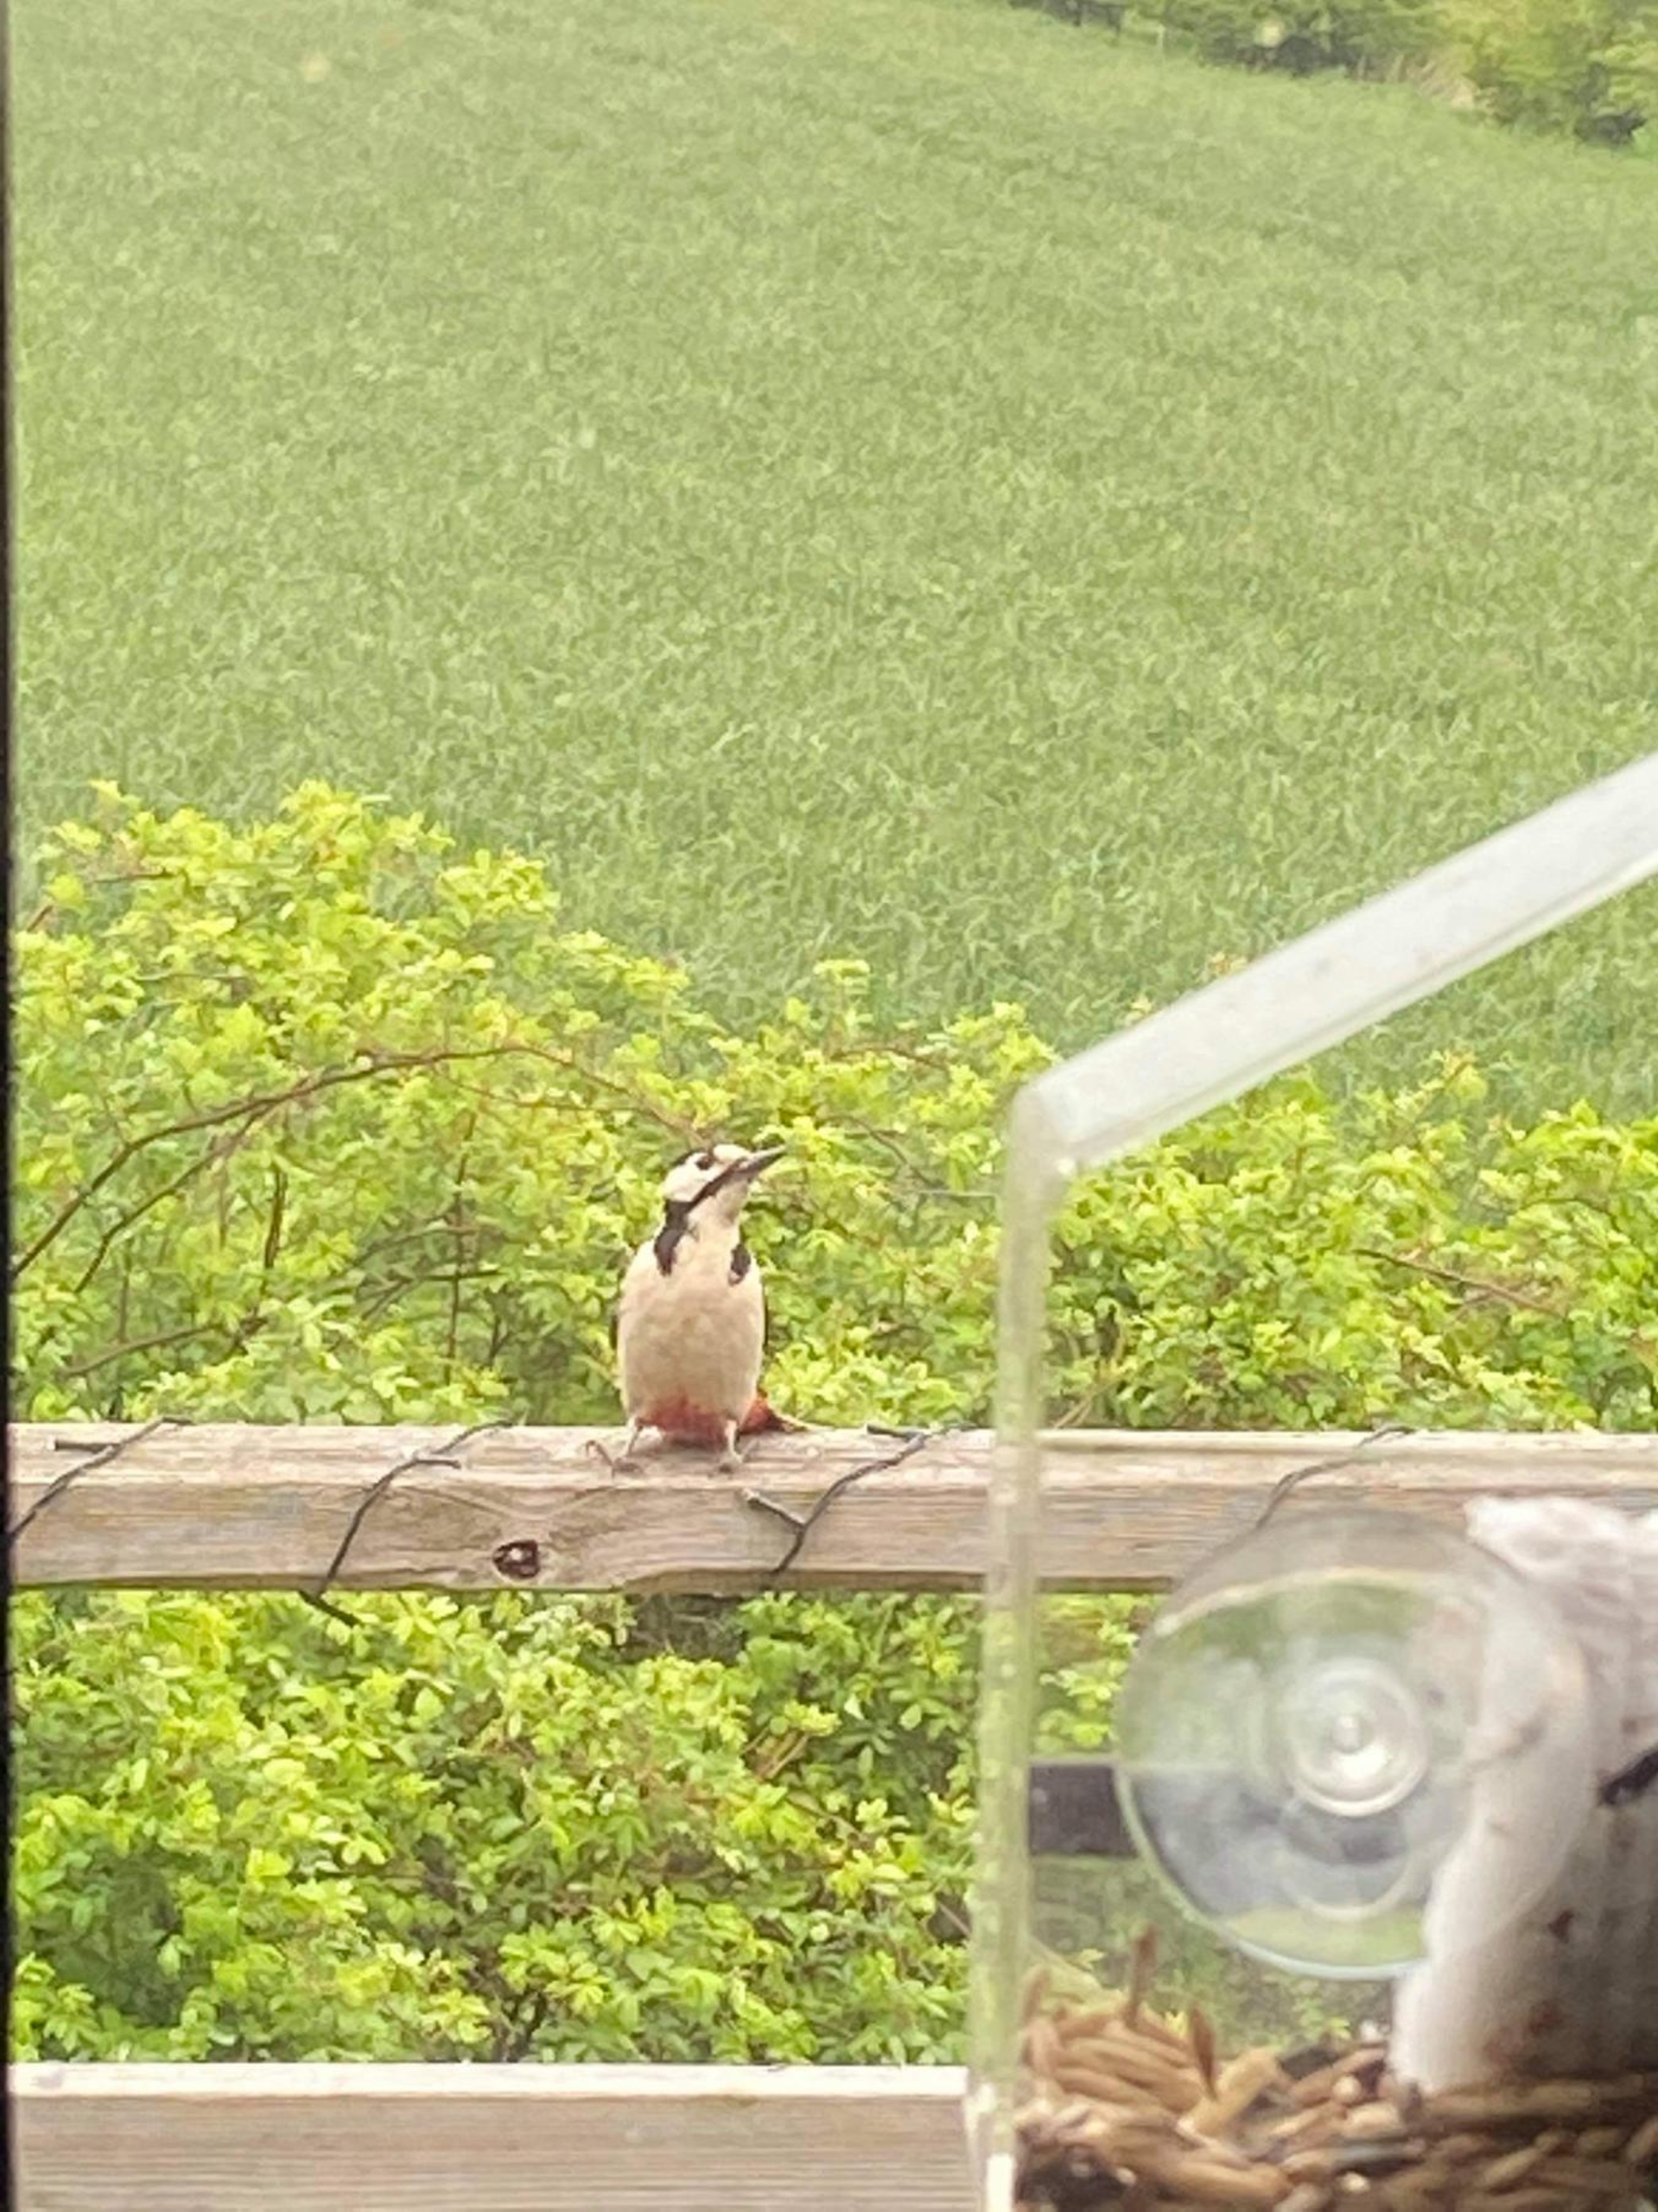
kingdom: Animalia
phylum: Chordata
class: Aves
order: Piciformes
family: Picidae
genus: Dendrocopos
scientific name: Dendrocopos major
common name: Stor flagspætte
